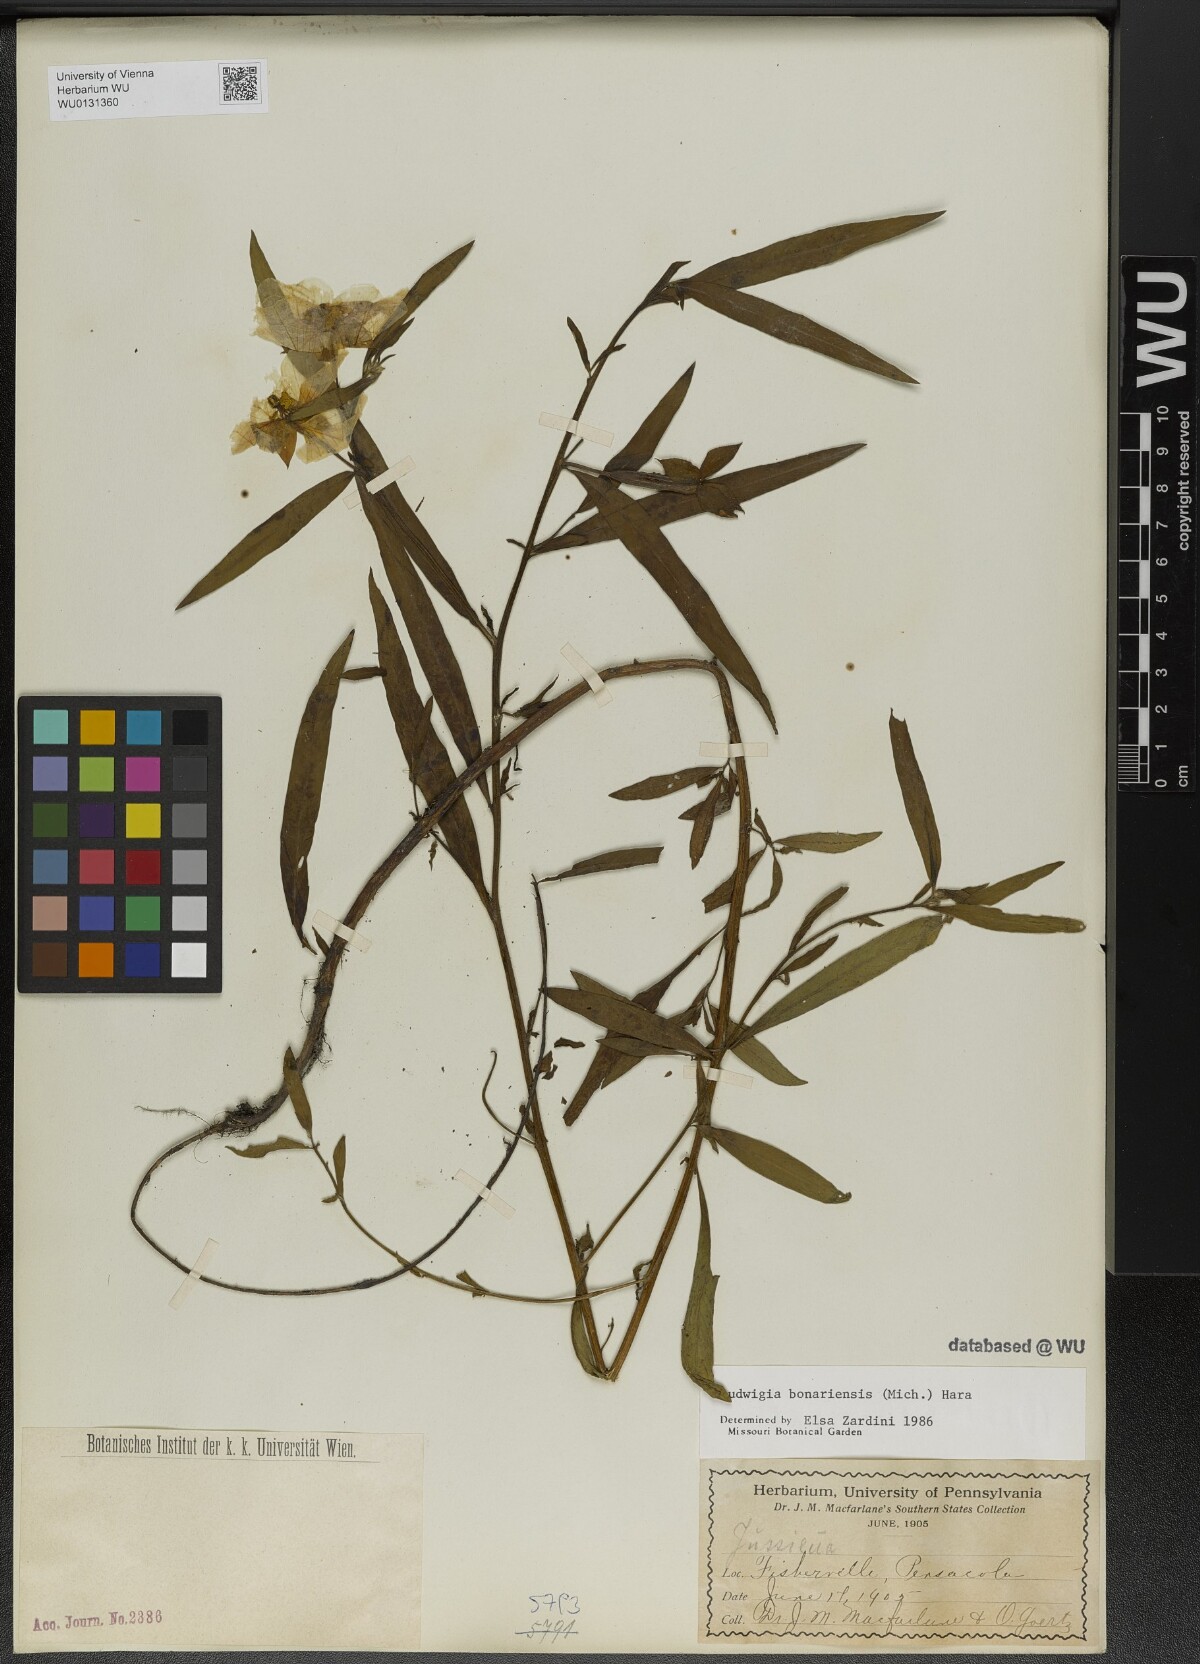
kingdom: Plantae
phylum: Tracheophyta
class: Magnoliopsida
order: Myrtales
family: Onagraceae
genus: Ludwigia
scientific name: Ludwigia bonariensis
